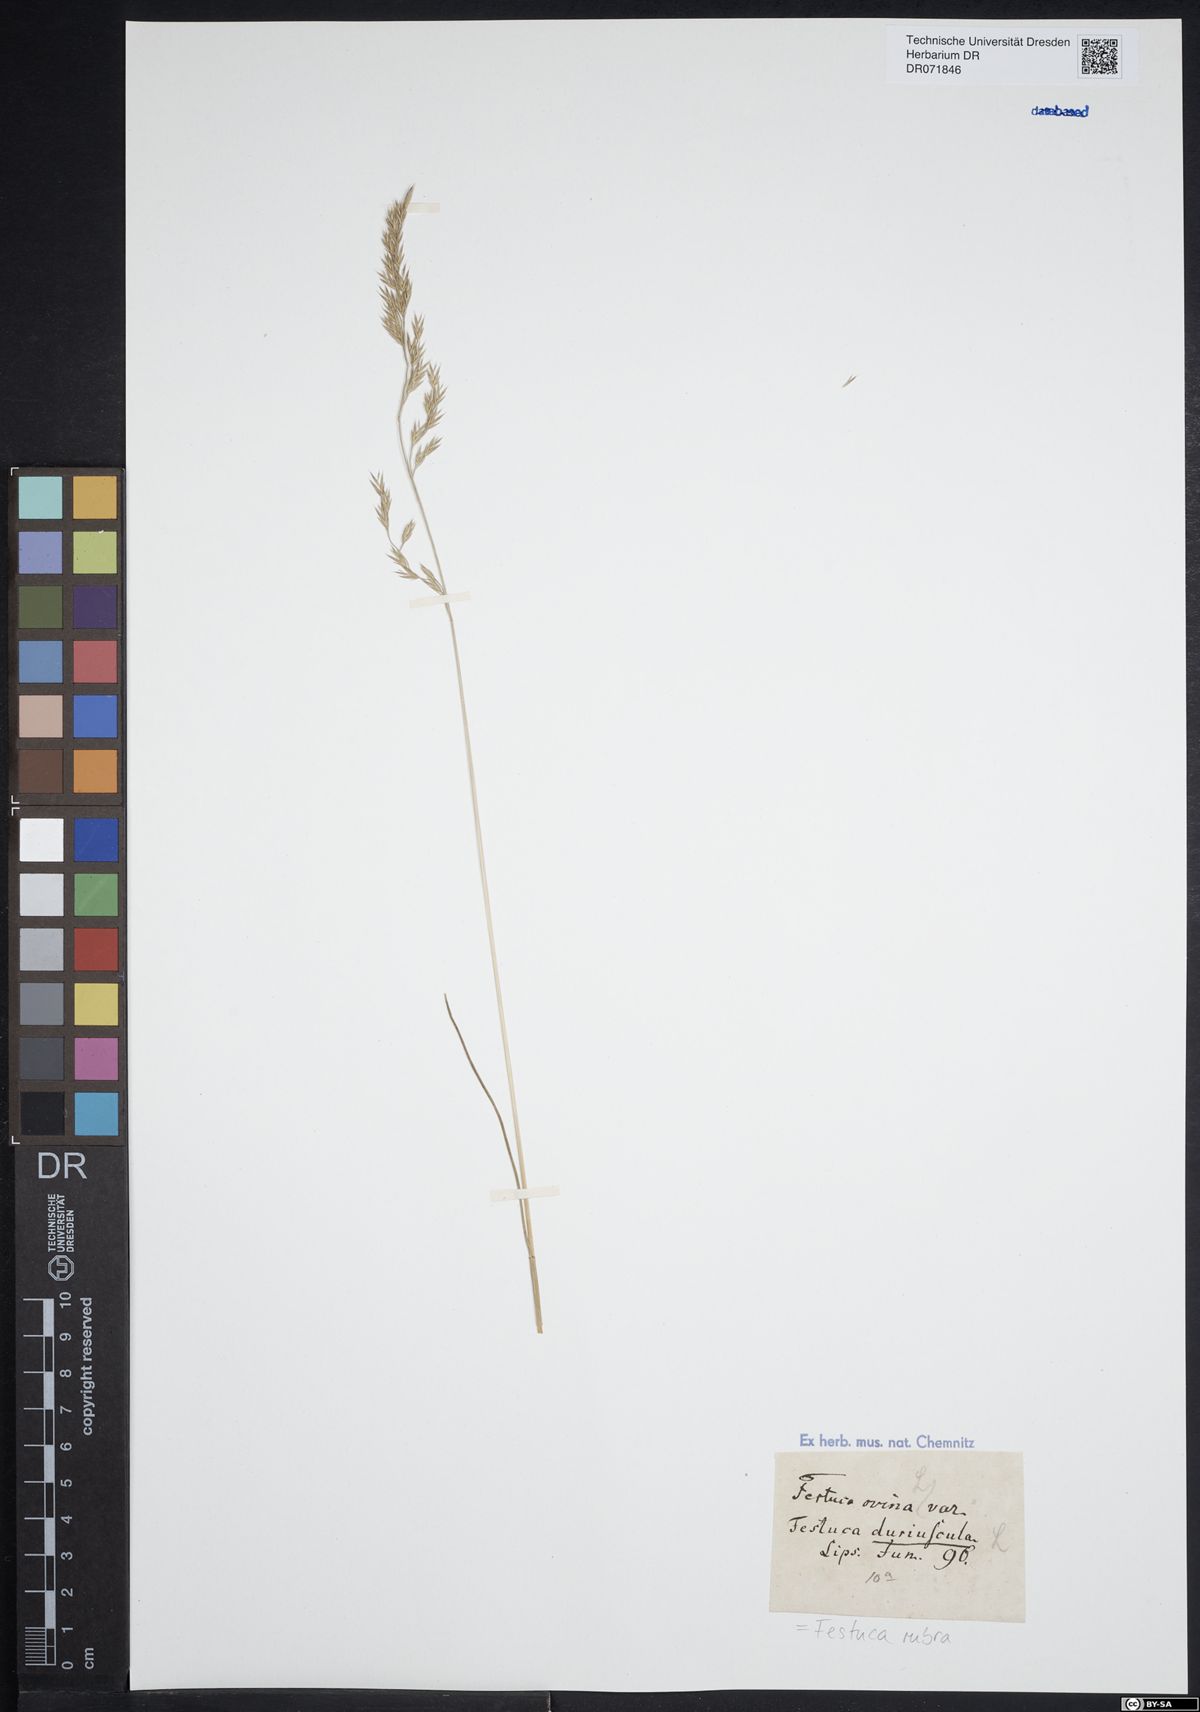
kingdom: Plantae
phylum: Tracheophyta
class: Liliopsida
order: Poales
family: Poaceae
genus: Festuca
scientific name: Festuca rubra
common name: Red fescue
